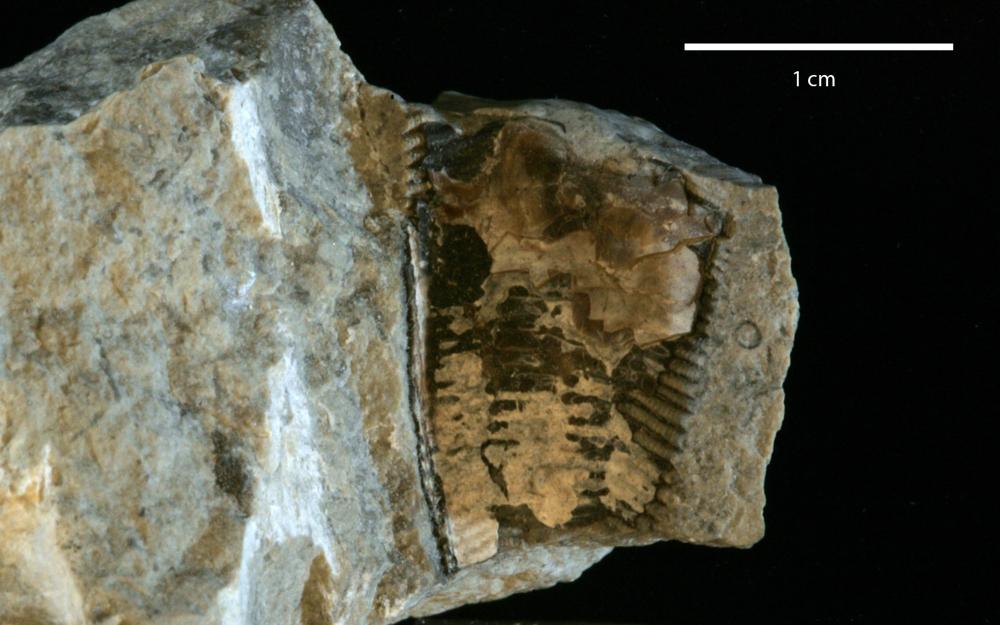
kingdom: Animalia
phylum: Cnidaria
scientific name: Cnidaria
